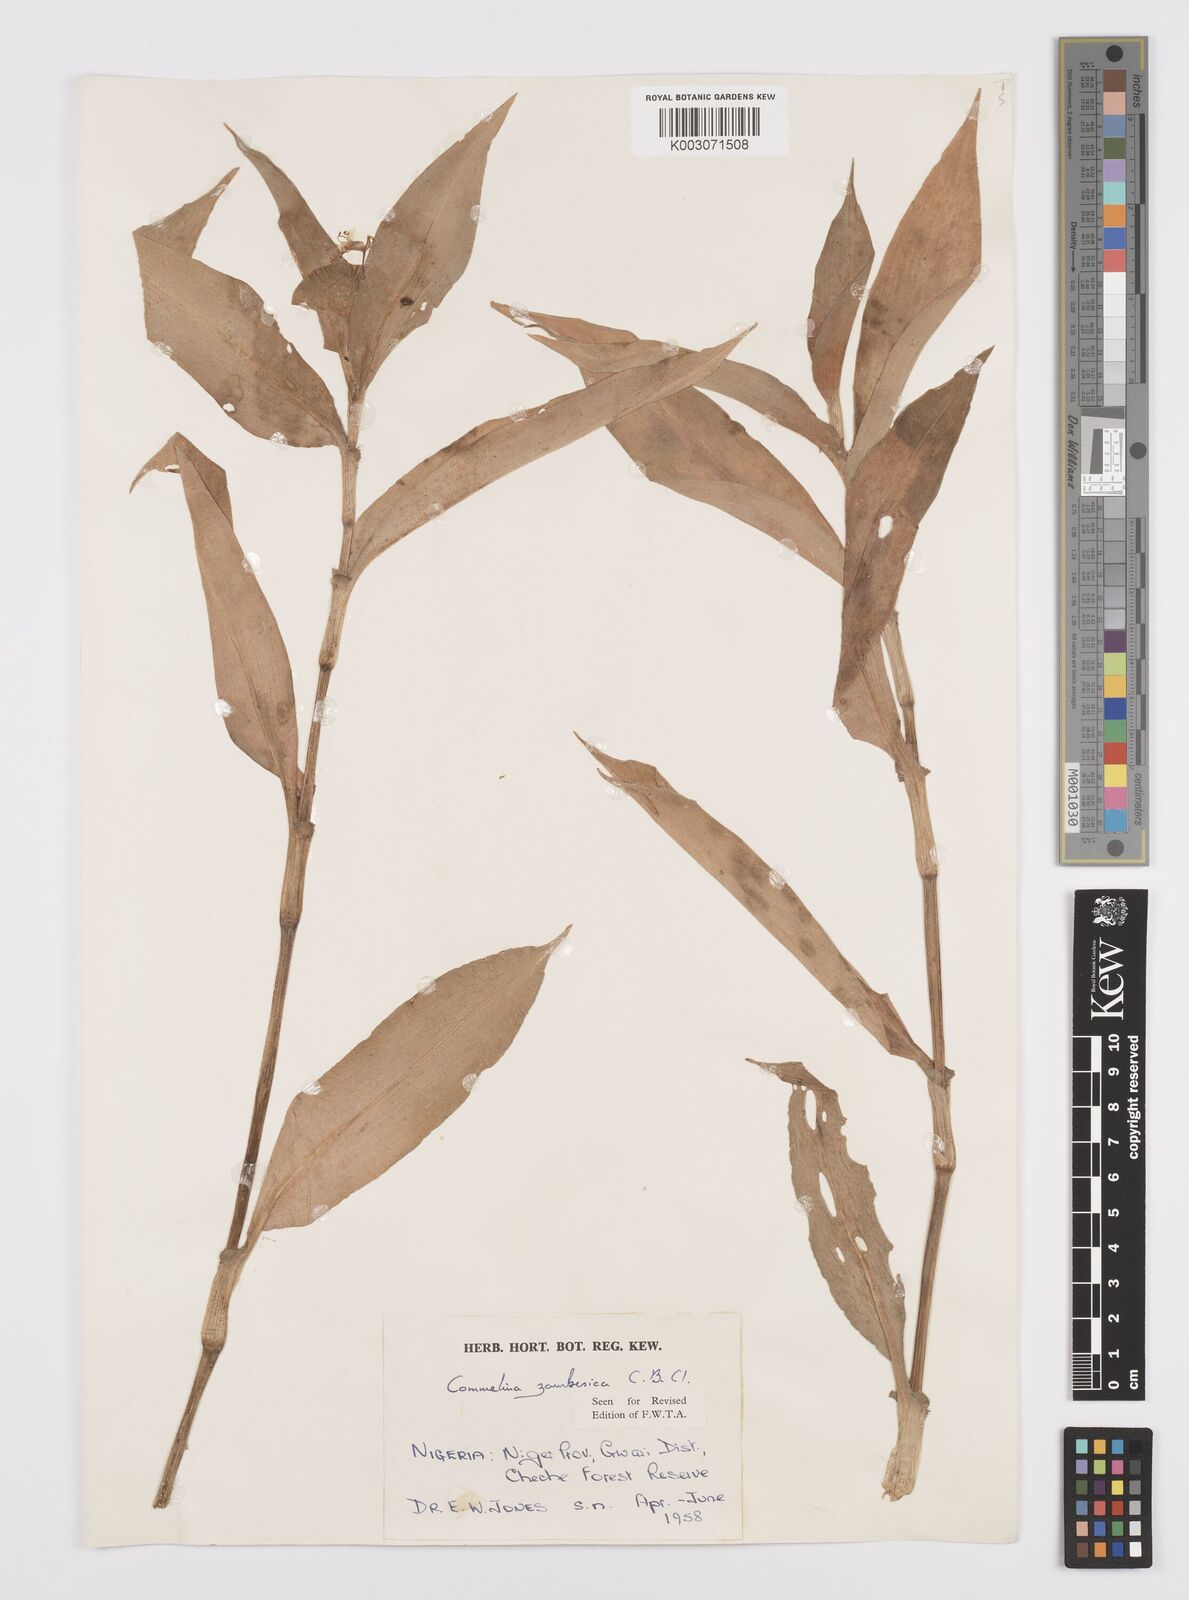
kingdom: Plantae
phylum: Tracheophyta
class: Liliopsida
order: Commelinales
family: Commelinaceae
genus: Commelina
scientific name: Commelina zambesica
